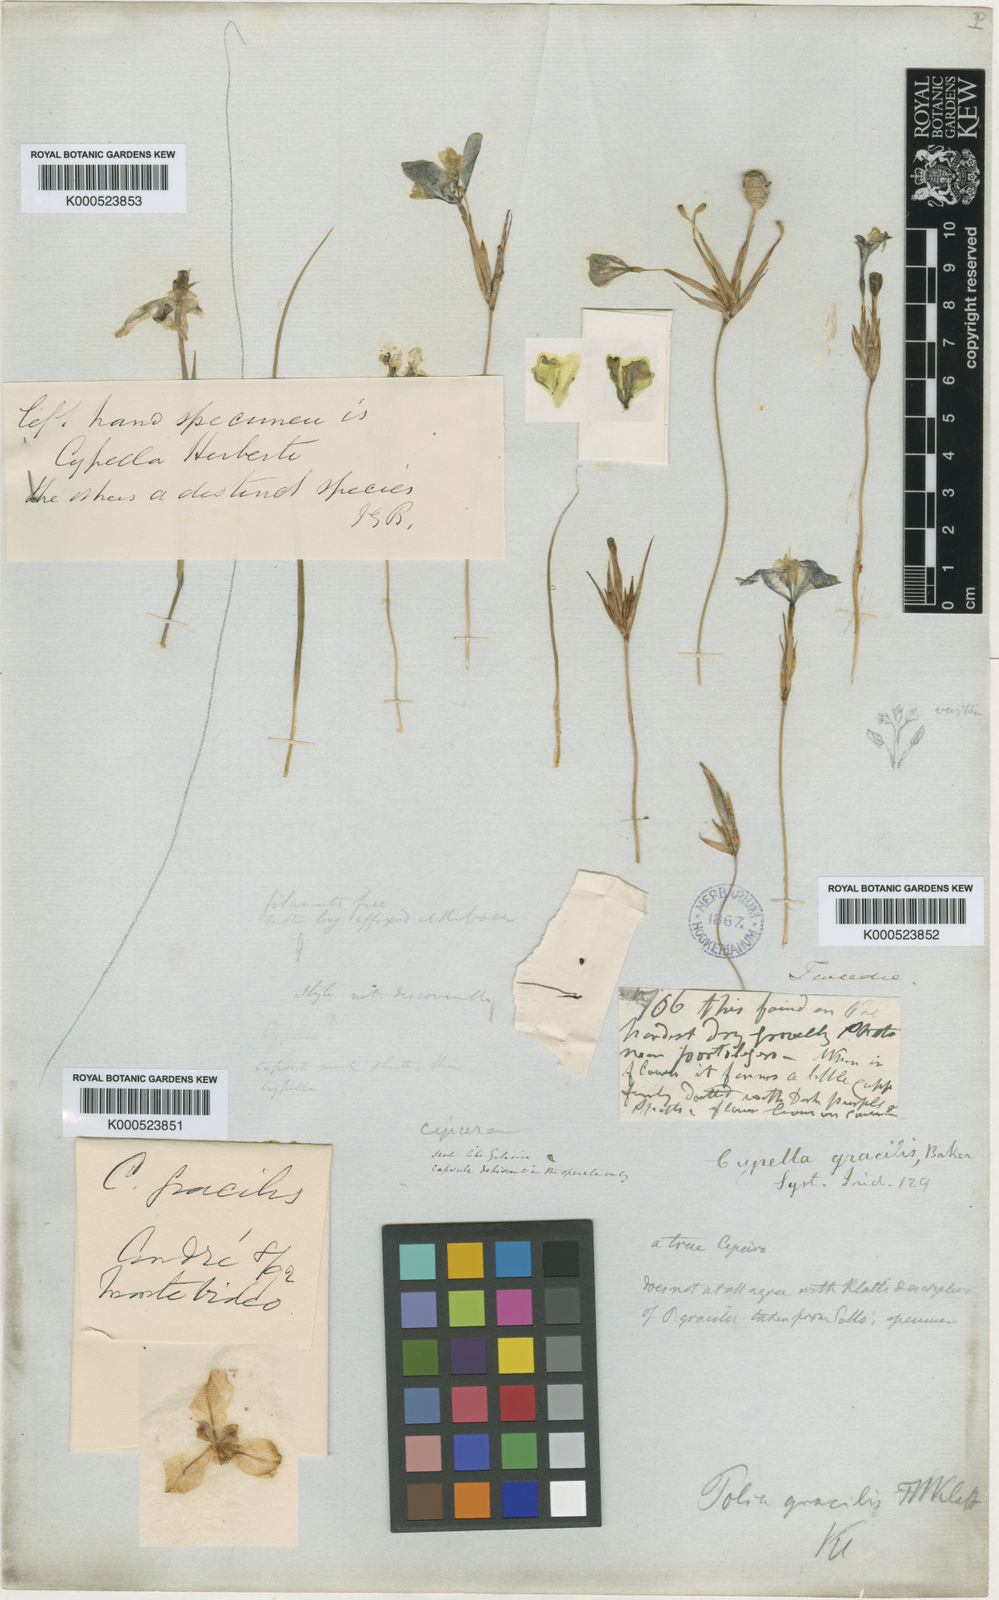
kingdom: Plantae
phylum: Tracheophyta
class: Liliopsida
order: Asparagales
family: Iridaceae
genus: Cypella
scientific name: Cypella exilis
